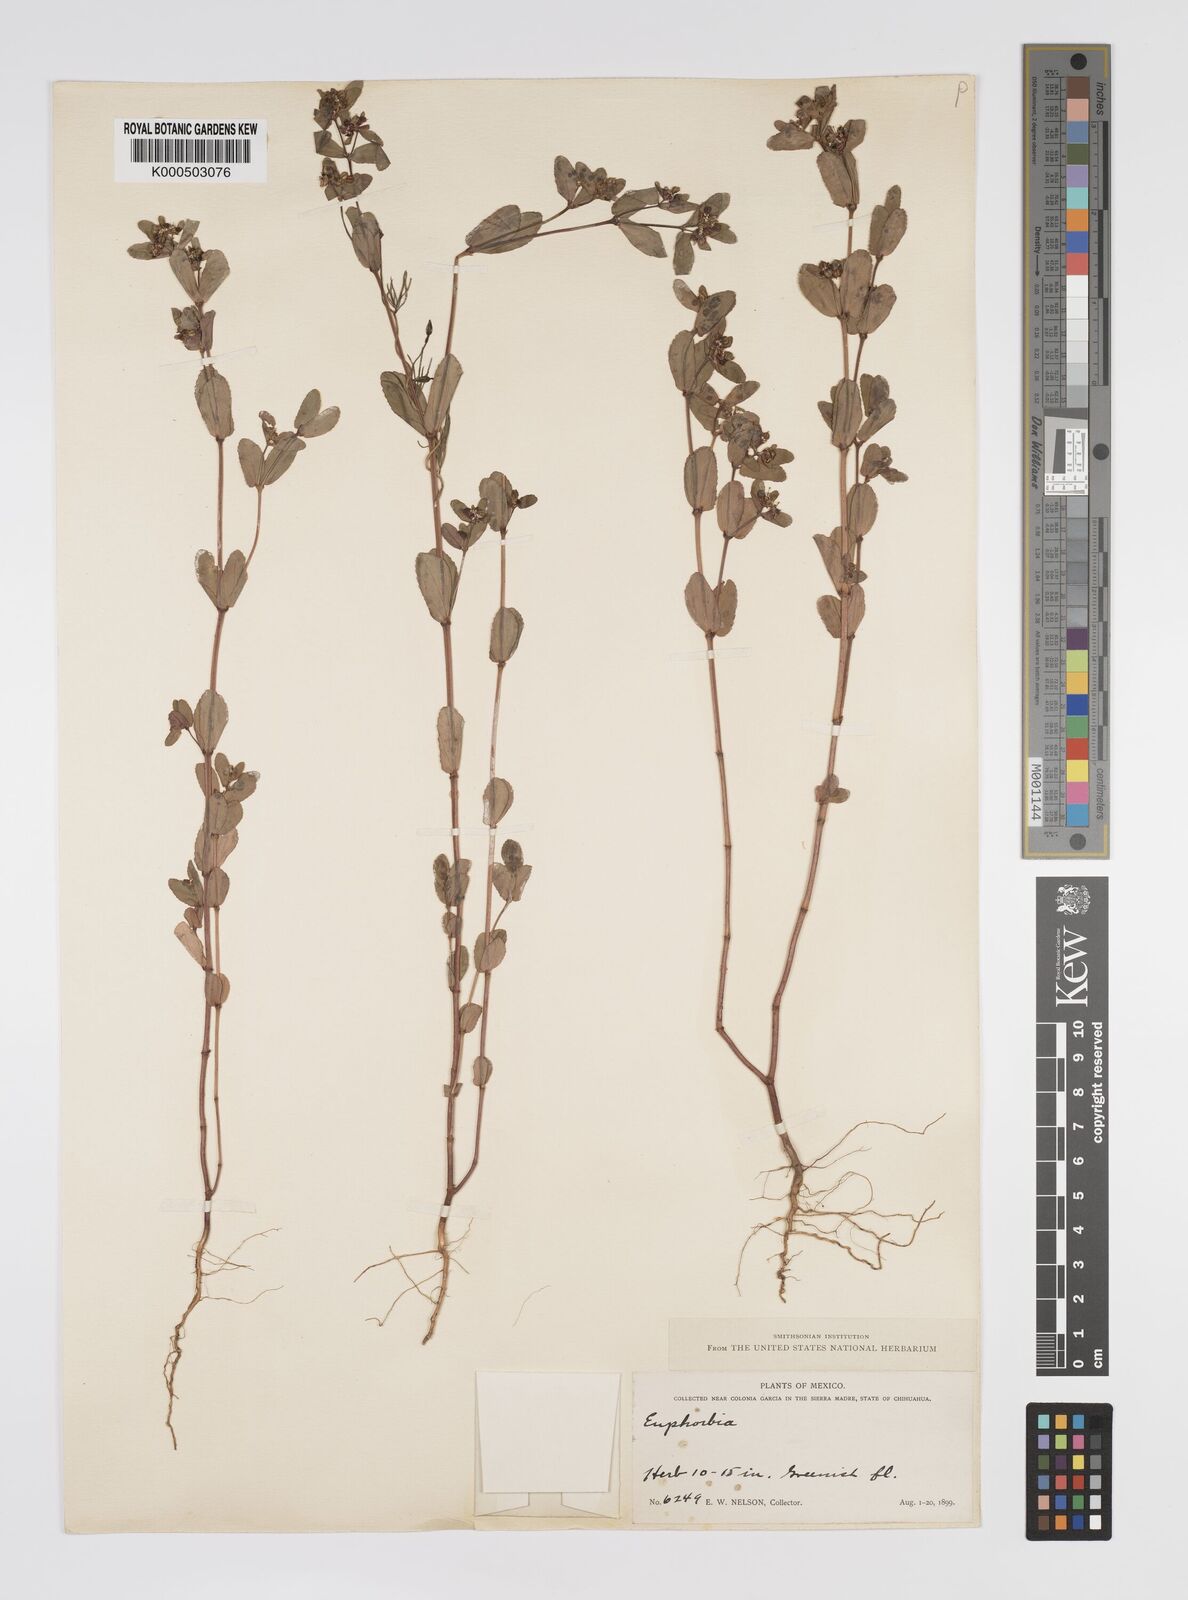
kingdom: Plantae
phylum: Tracheophyta
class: Magnoliopsida
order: Malpighiales
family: Euphorbiaceae
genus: Euphorbia
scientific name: Euphorbia
